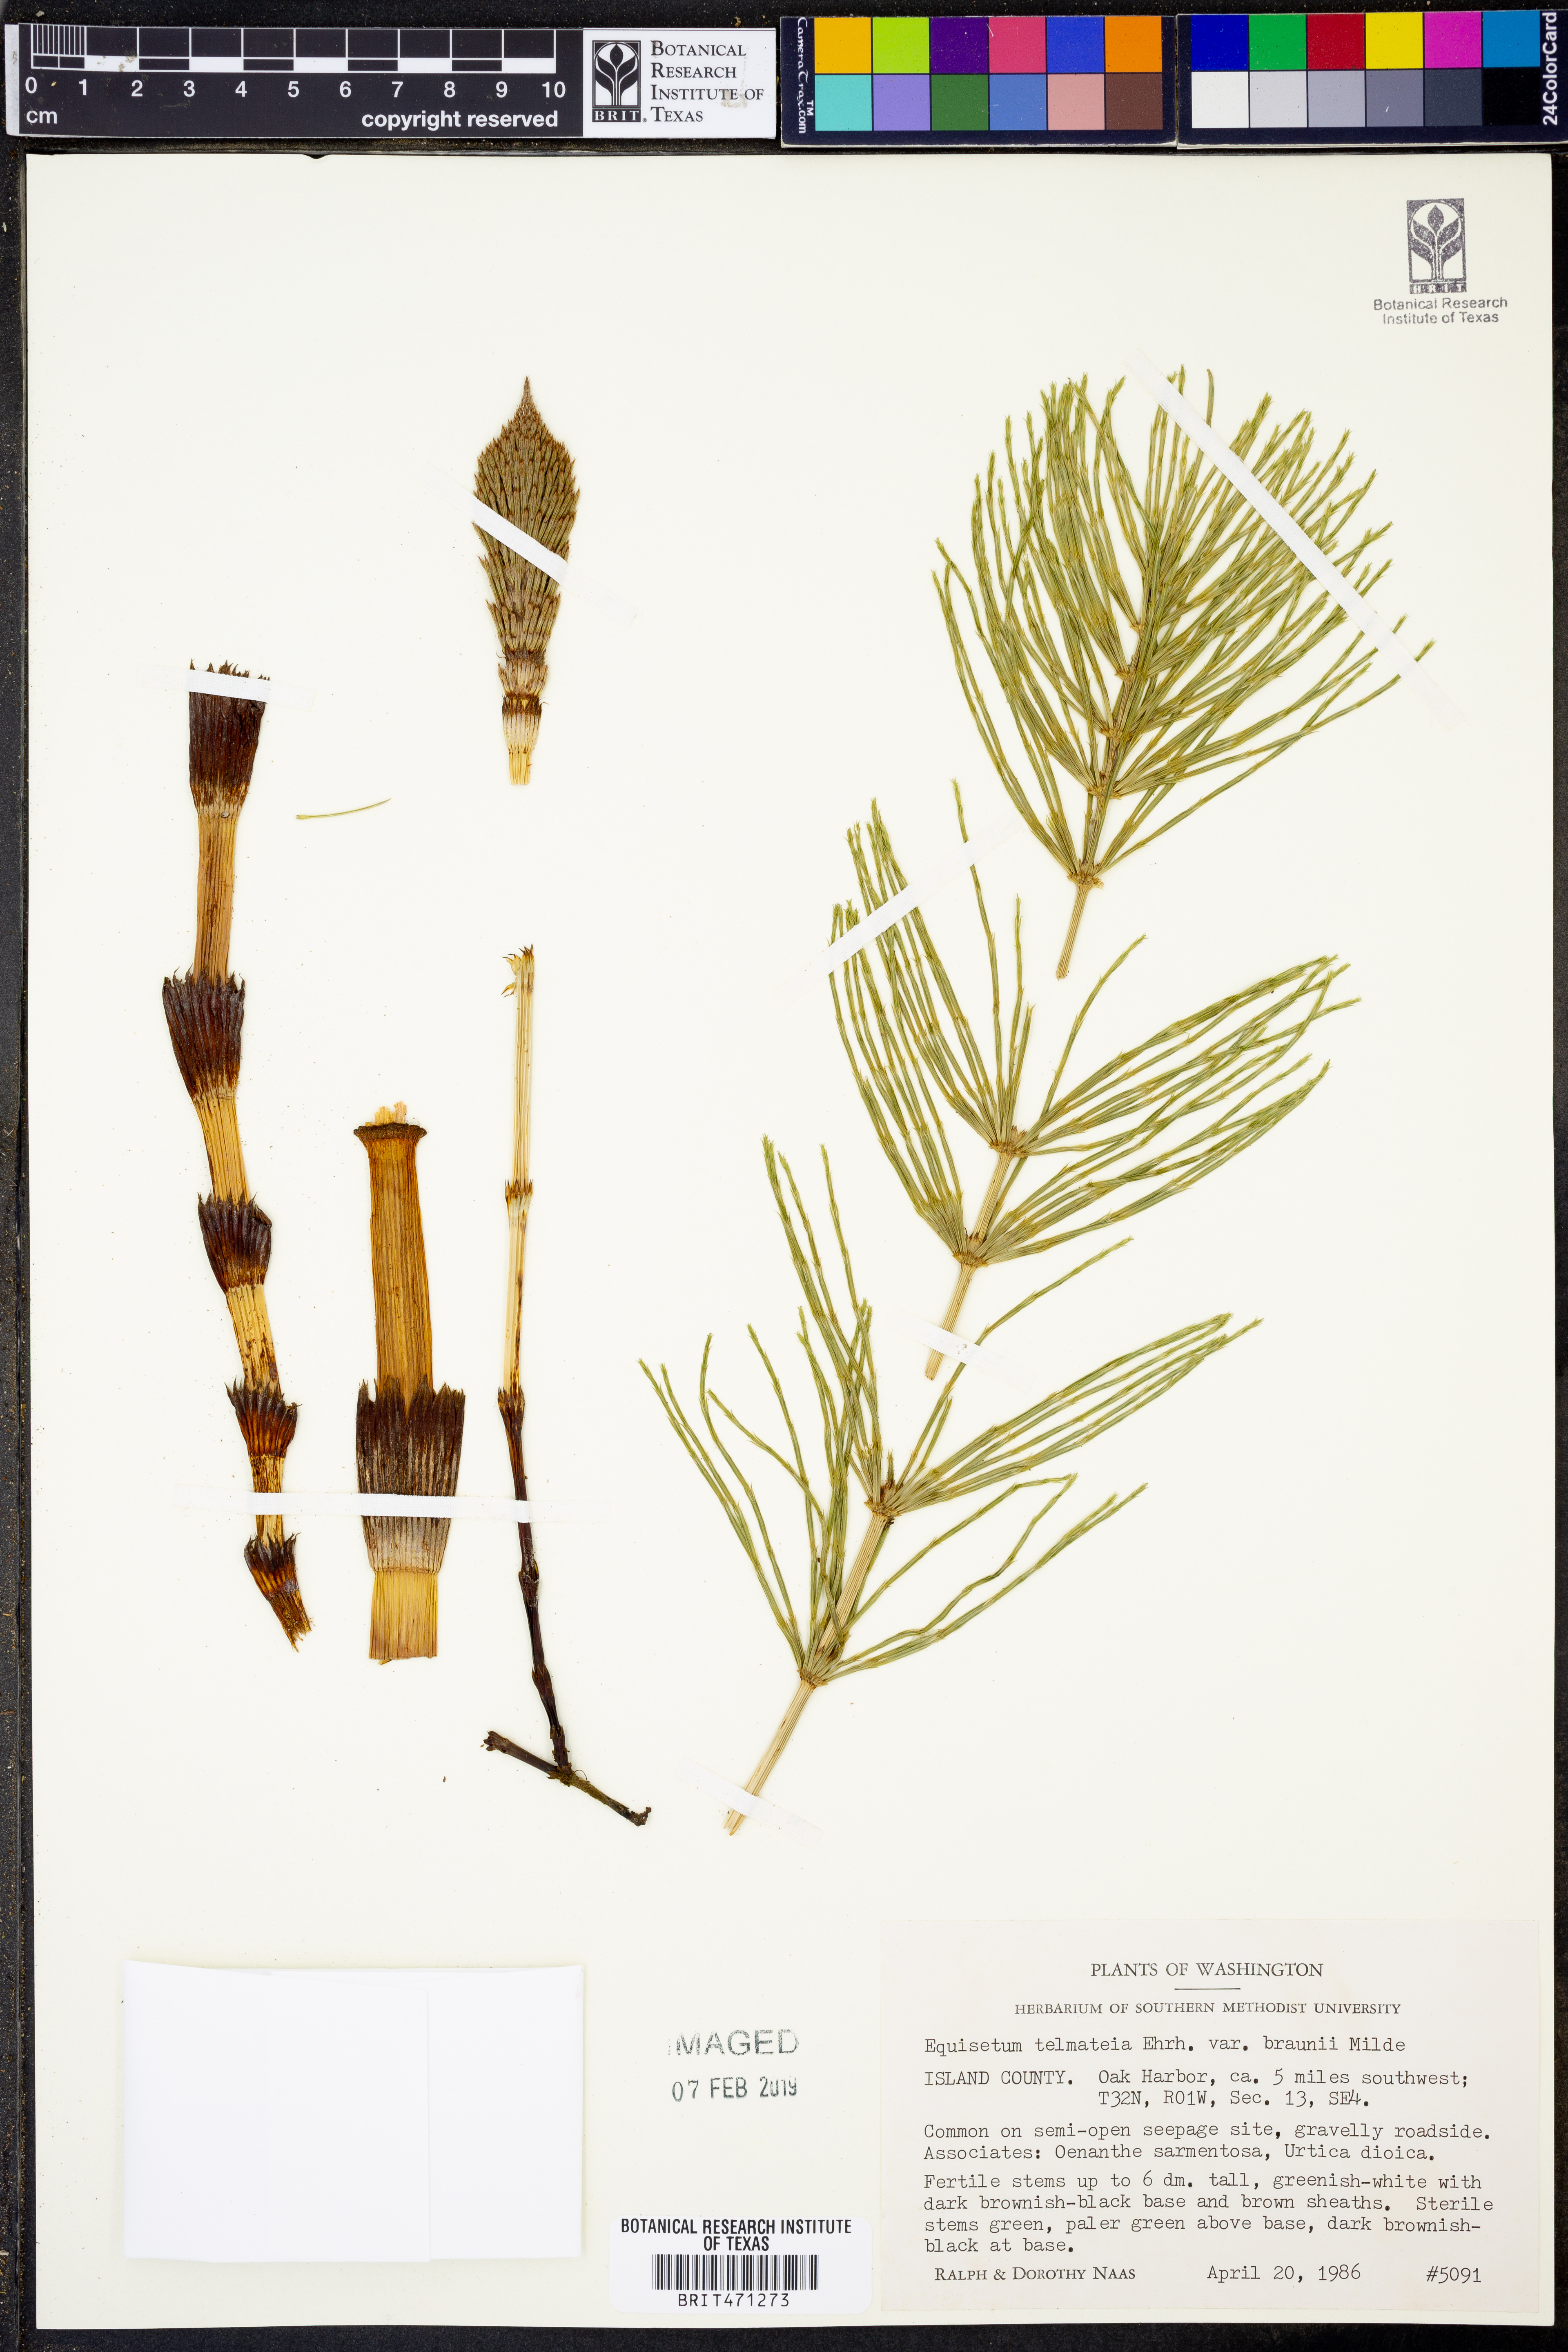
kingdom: Plantae
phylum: Tracheophyta
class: Polypodiopsida
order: Equisetales
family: Equisetaceae
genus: Equisetum
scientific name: Equisetum braunii
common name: Braun's horsetail
